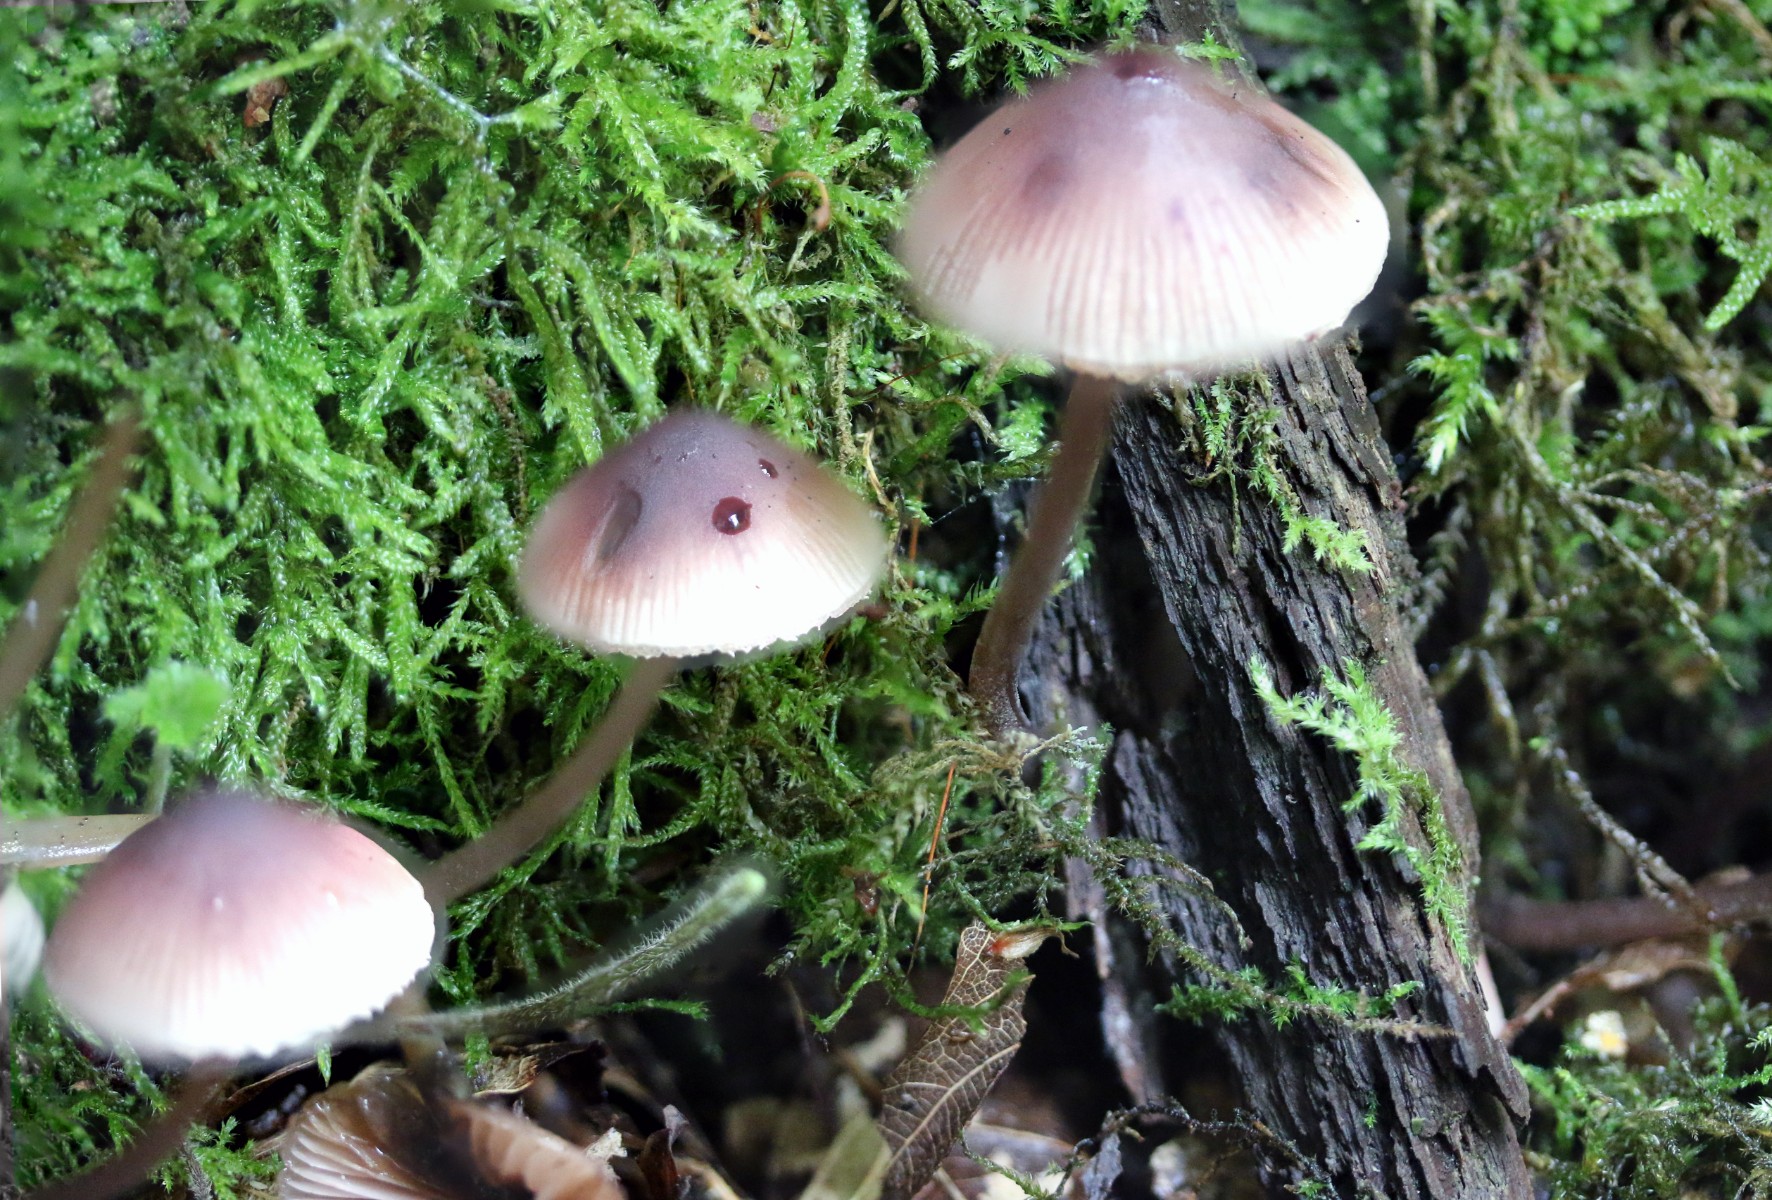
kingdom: Fungi
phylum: Basidiomycota
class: Agaricomycetes
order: Agaricales
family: Mycenaceae
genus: Mycena
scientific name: Mycena haematopus
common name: blødende huesvamp
